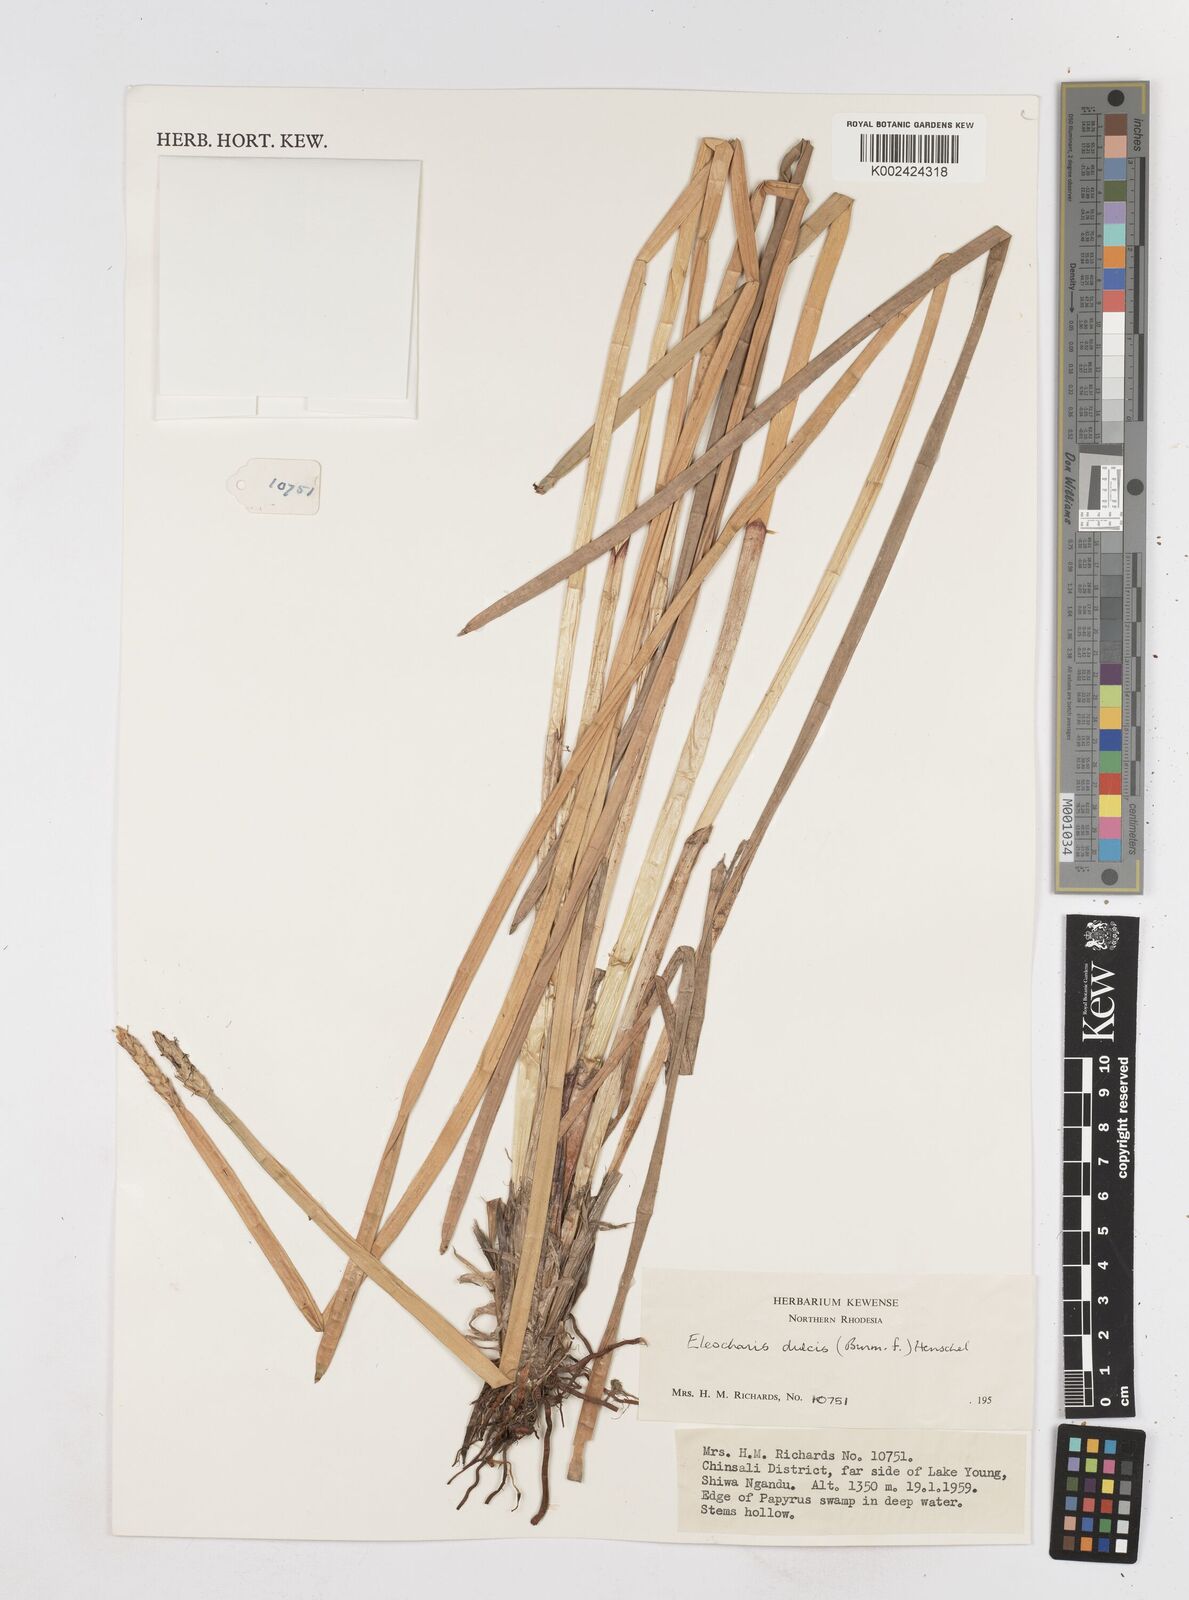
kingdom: Plantae
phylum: Tracheophyta
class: Liliopsida
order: Poales
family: Cyperaceae
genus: Eleocharis
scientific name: Eleocharis dulcis
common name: Chinese water chestnut
